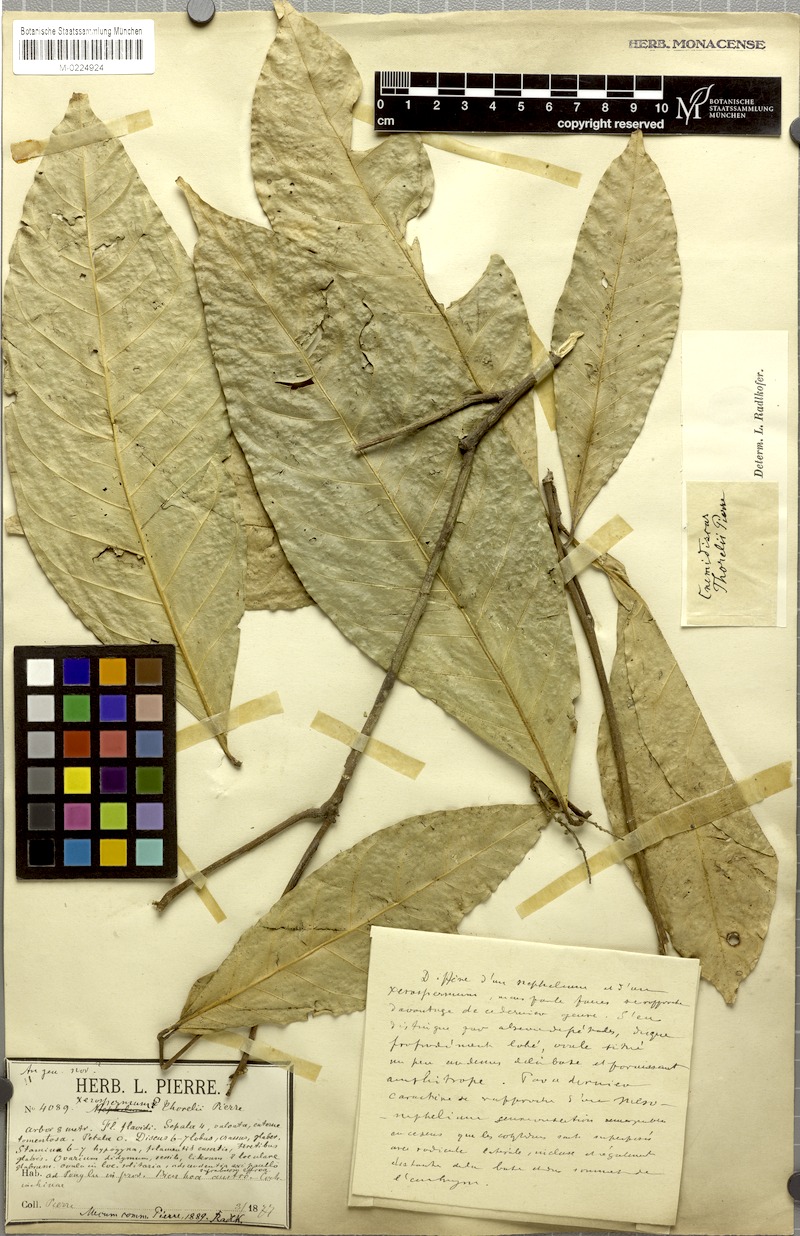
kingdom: Plantae
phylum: Tracheophyta
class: Magnoliopsida
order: Sapindales
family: Sapindaceae
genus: Glenniea
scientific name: Glenniea thorelii
